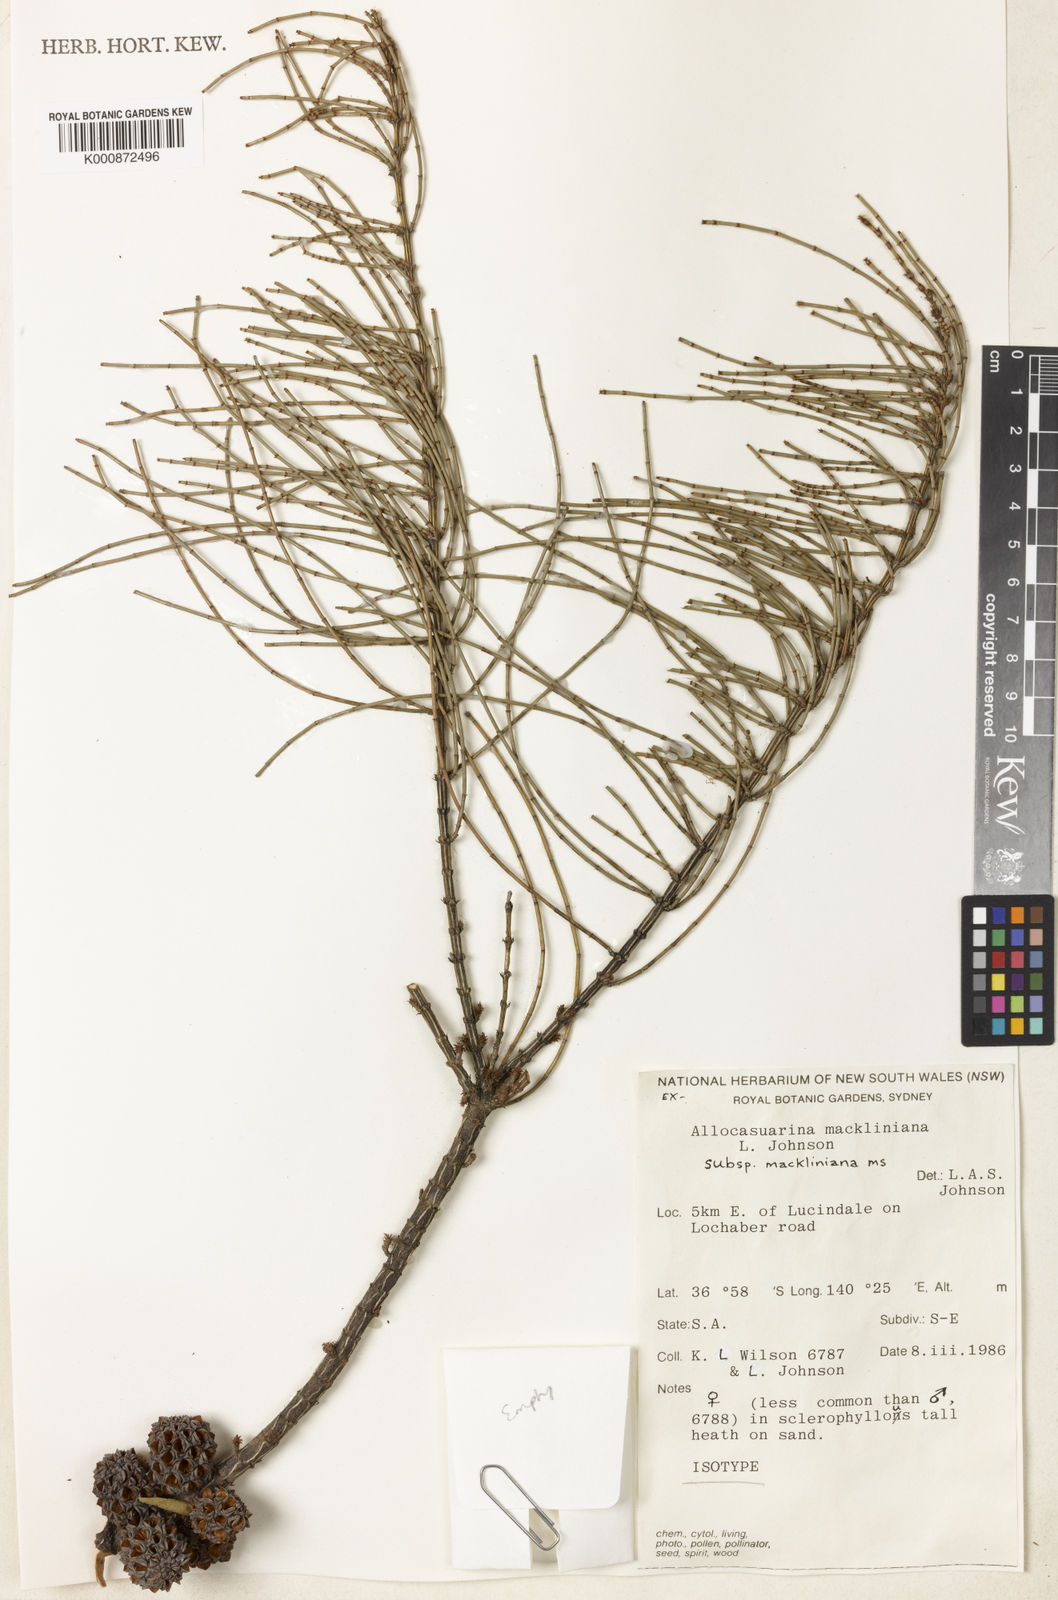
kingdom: Plantae
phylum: Tracheophyta
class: Magnoliopsida
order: Fagales
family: Casuarinaceae
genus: Allocasuarina
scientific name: Allocasuarina mackliniana
